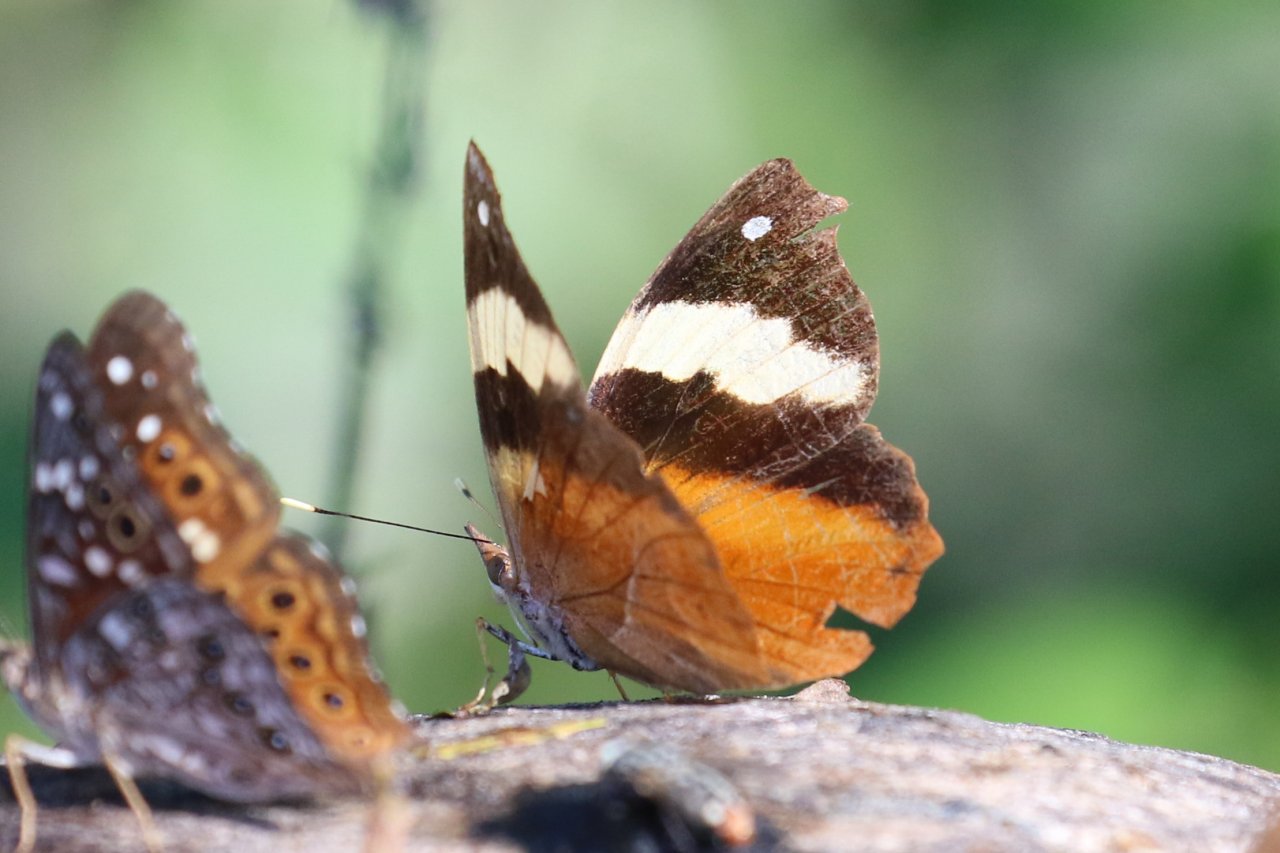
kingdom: Animalia
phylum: Arthropoda
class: Insecta
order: Lepidoptera
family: Nymphalidae
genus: Epiphile
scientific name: Epiphile adrasta
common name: Common Banner
